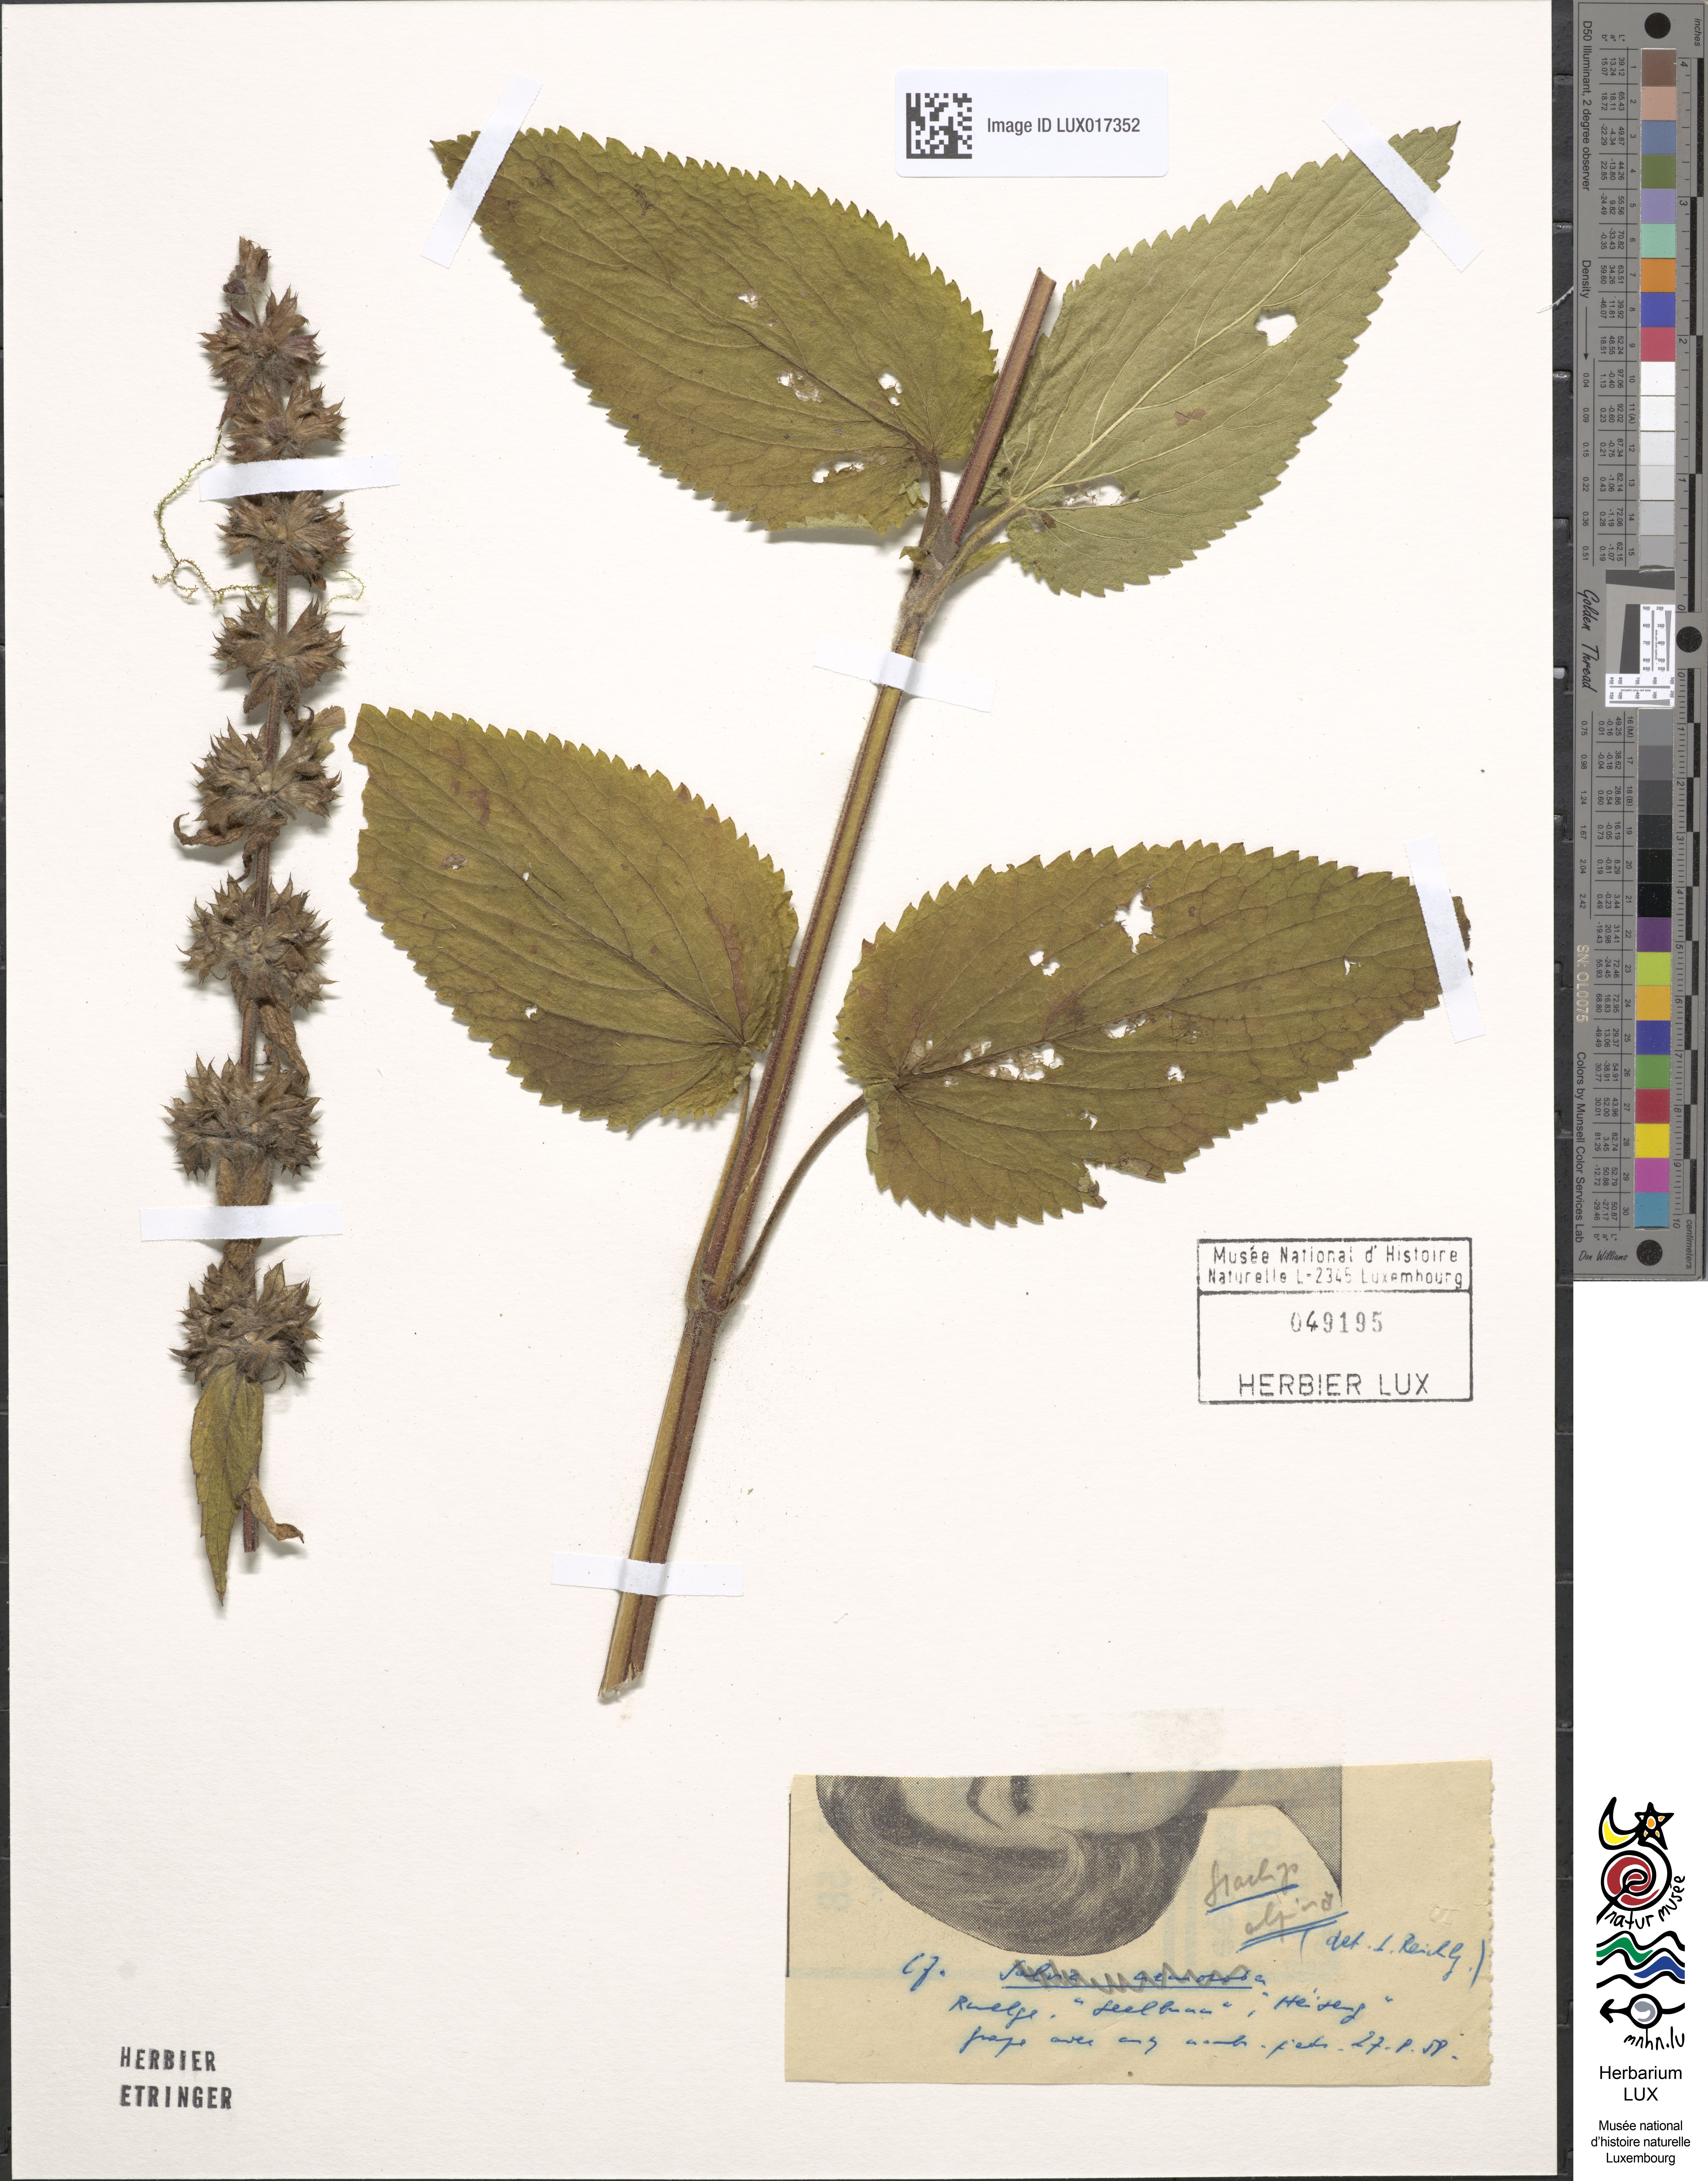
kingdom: Plantae
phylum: Tracheophyta
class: Magnoliopsida
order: Lamiales
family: Lamiaceae
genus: Stachys
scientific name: Stachys alpina
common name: Limestone woundwort
